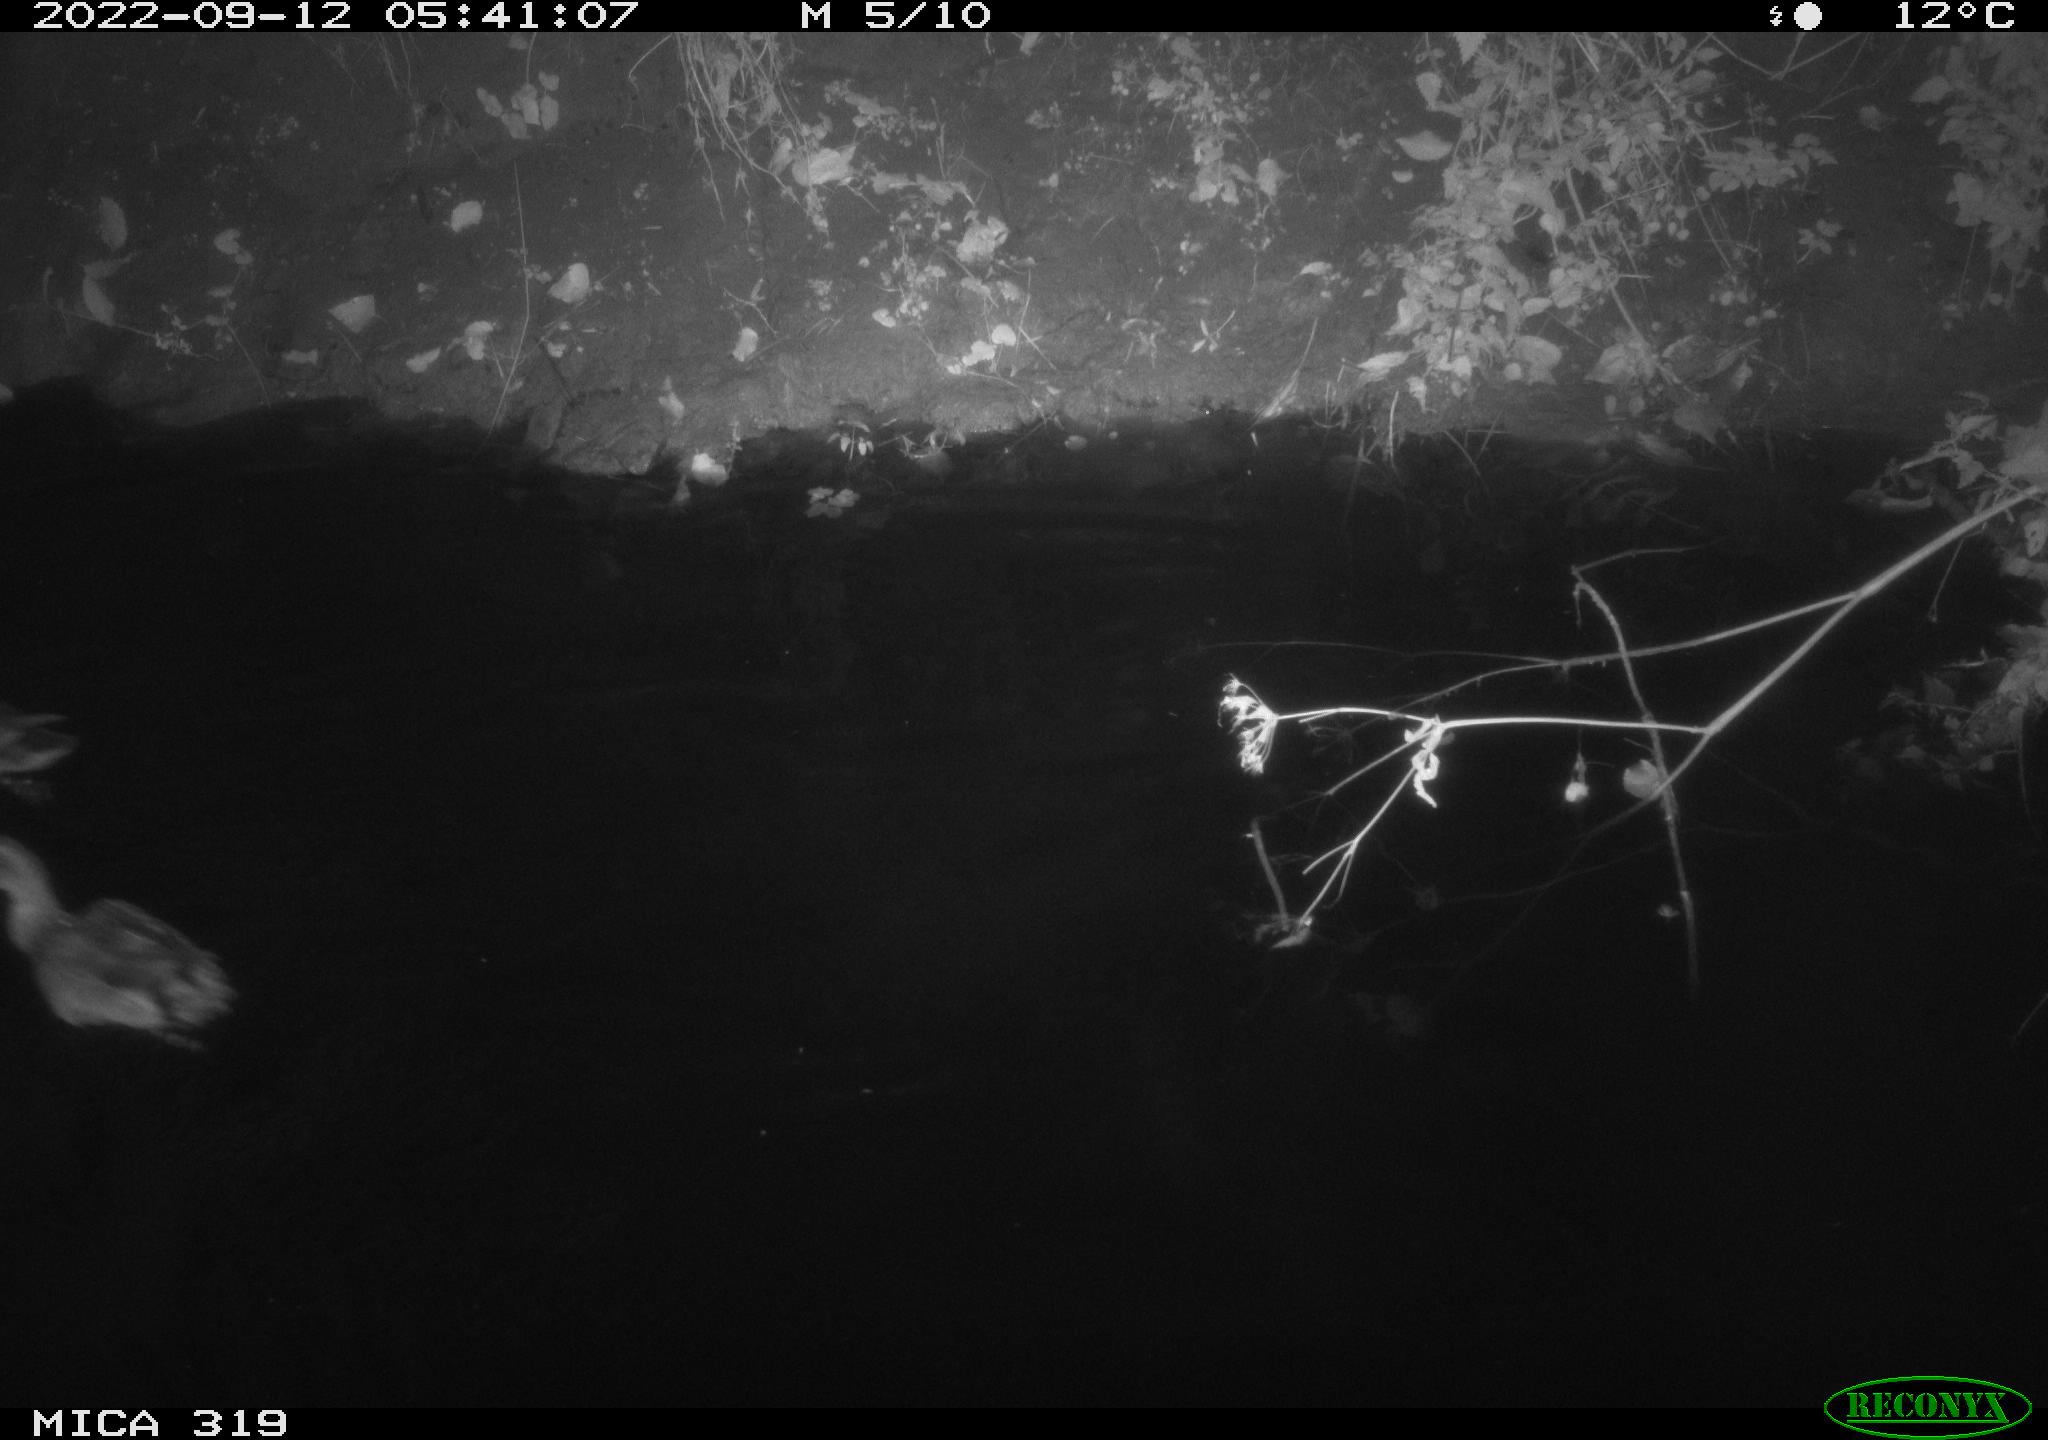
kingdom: Animalia
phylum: Chordata
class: Aves
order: Anseriformes
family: Anatidae
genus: Anas
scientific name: Anas
